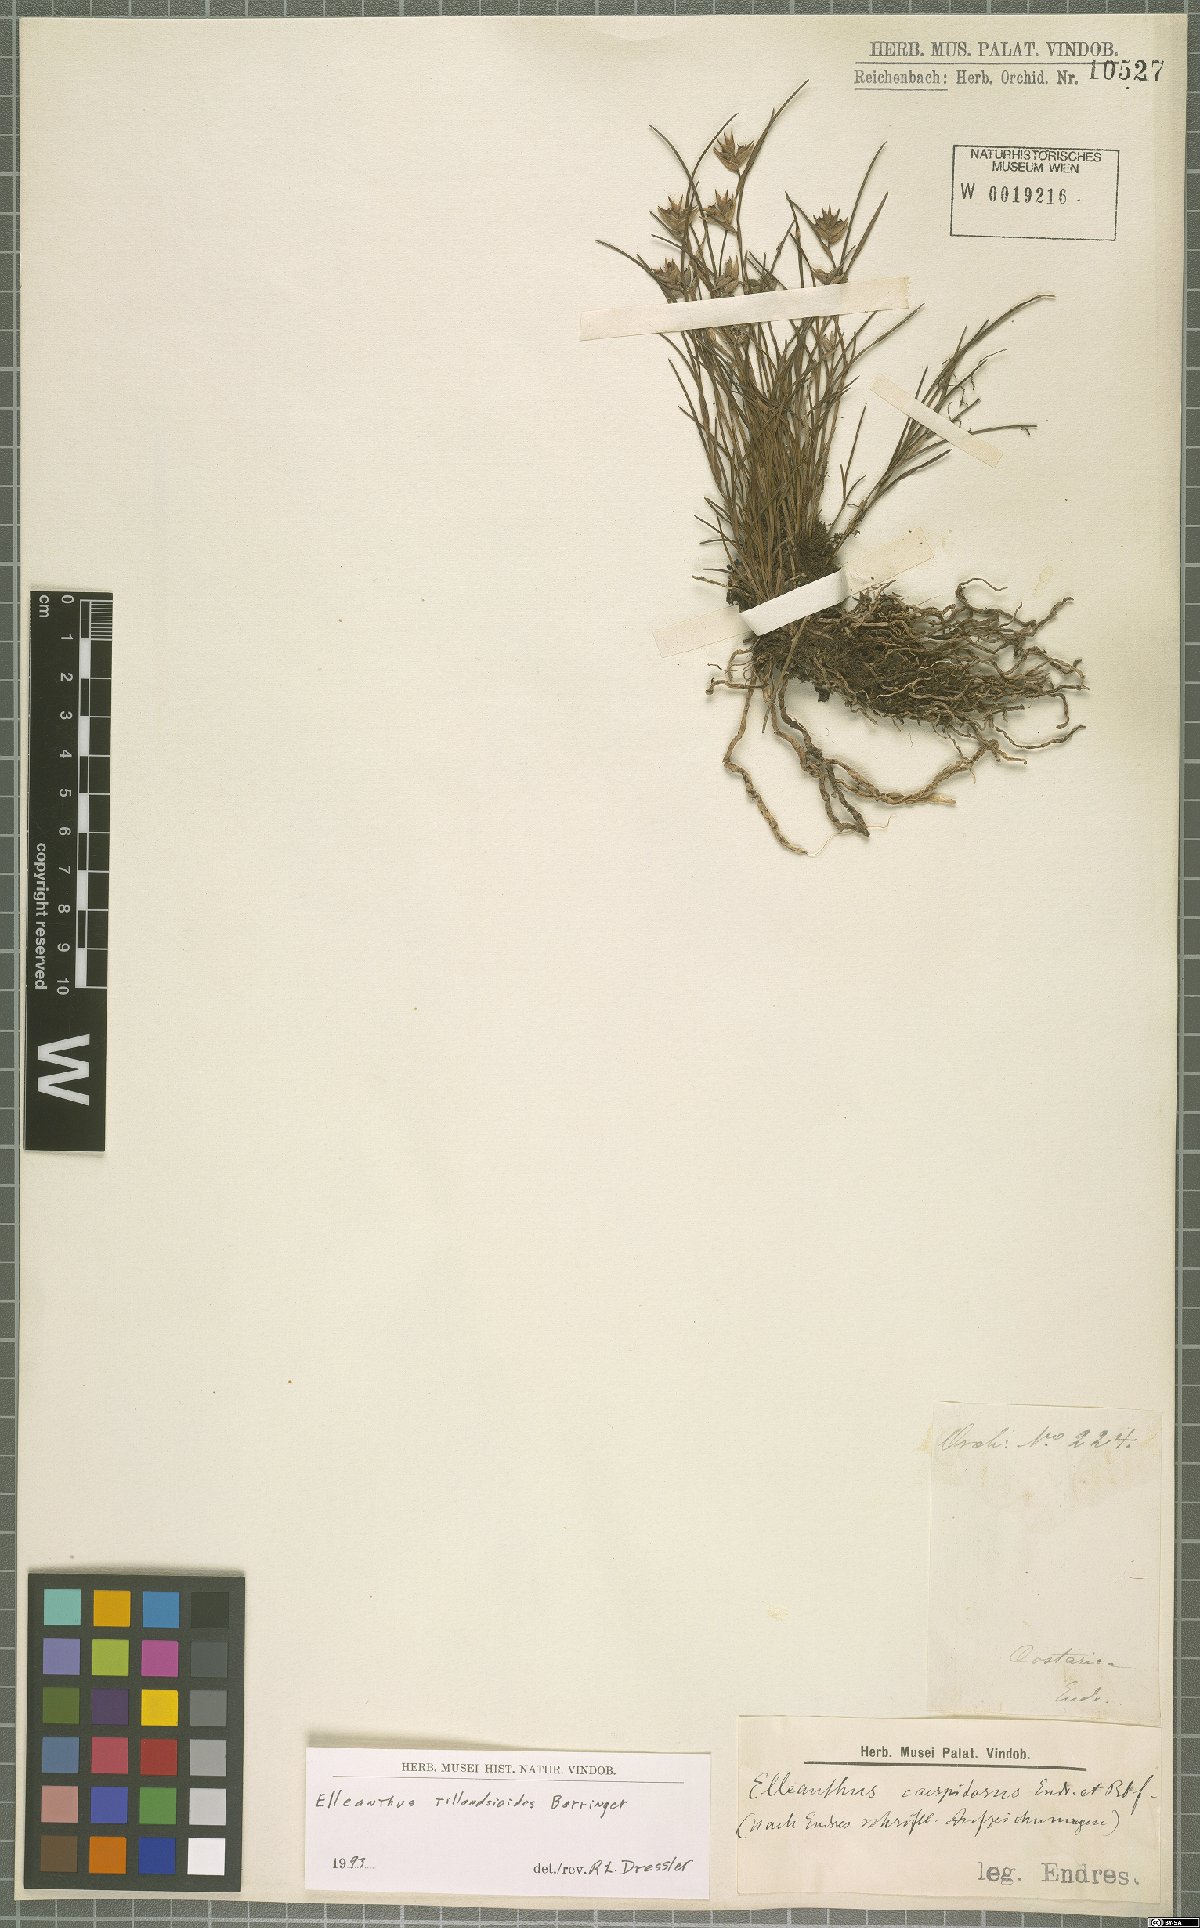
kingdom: Plantae
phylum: Tracheophyta
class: Liliopsida
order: Asparagales
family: Orchidaceae
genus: Elleanthus
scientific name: Elleanthus tillandsioides
